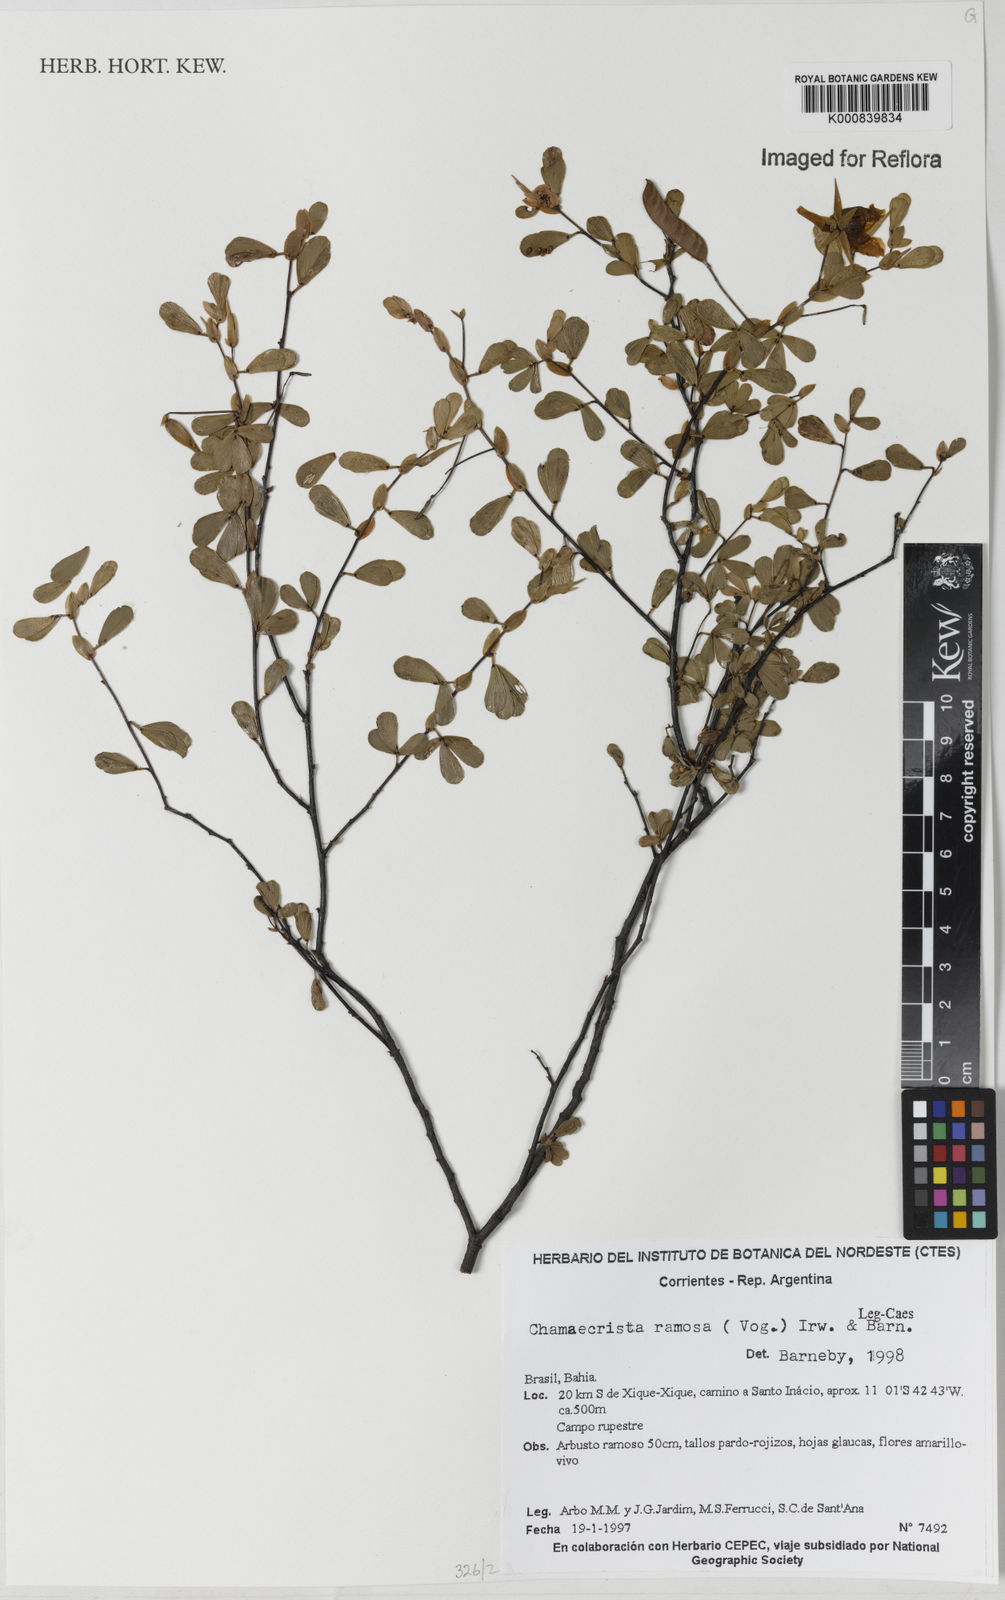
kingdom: Plantae
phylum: Tracheophyta
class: Magnoliopsida
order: Fabales
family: Fabaceae
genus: Chamaecrista
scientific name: Chamaecrista ramosa
